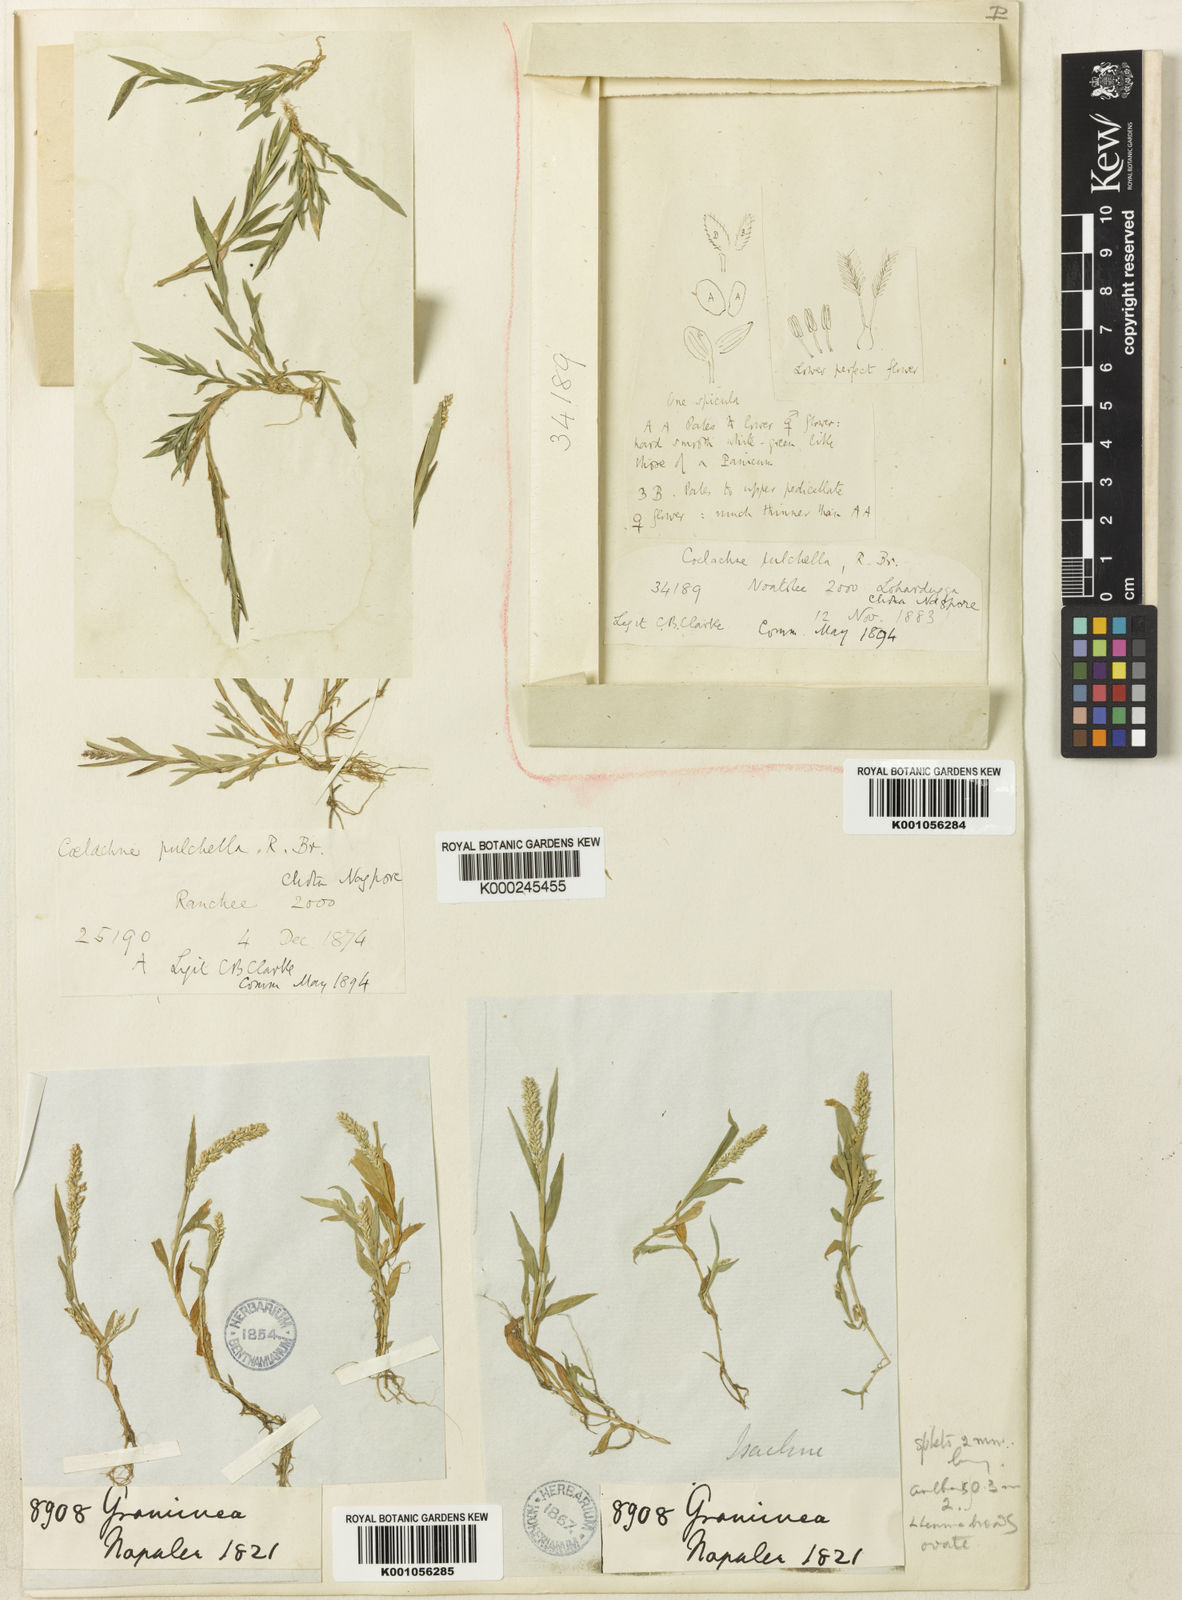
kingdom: Plantae
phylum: Tracheophyta
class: Liliopsida
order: Poales
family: Poaceae
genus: Coelachne
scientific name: Coelachne simpliciuscula
